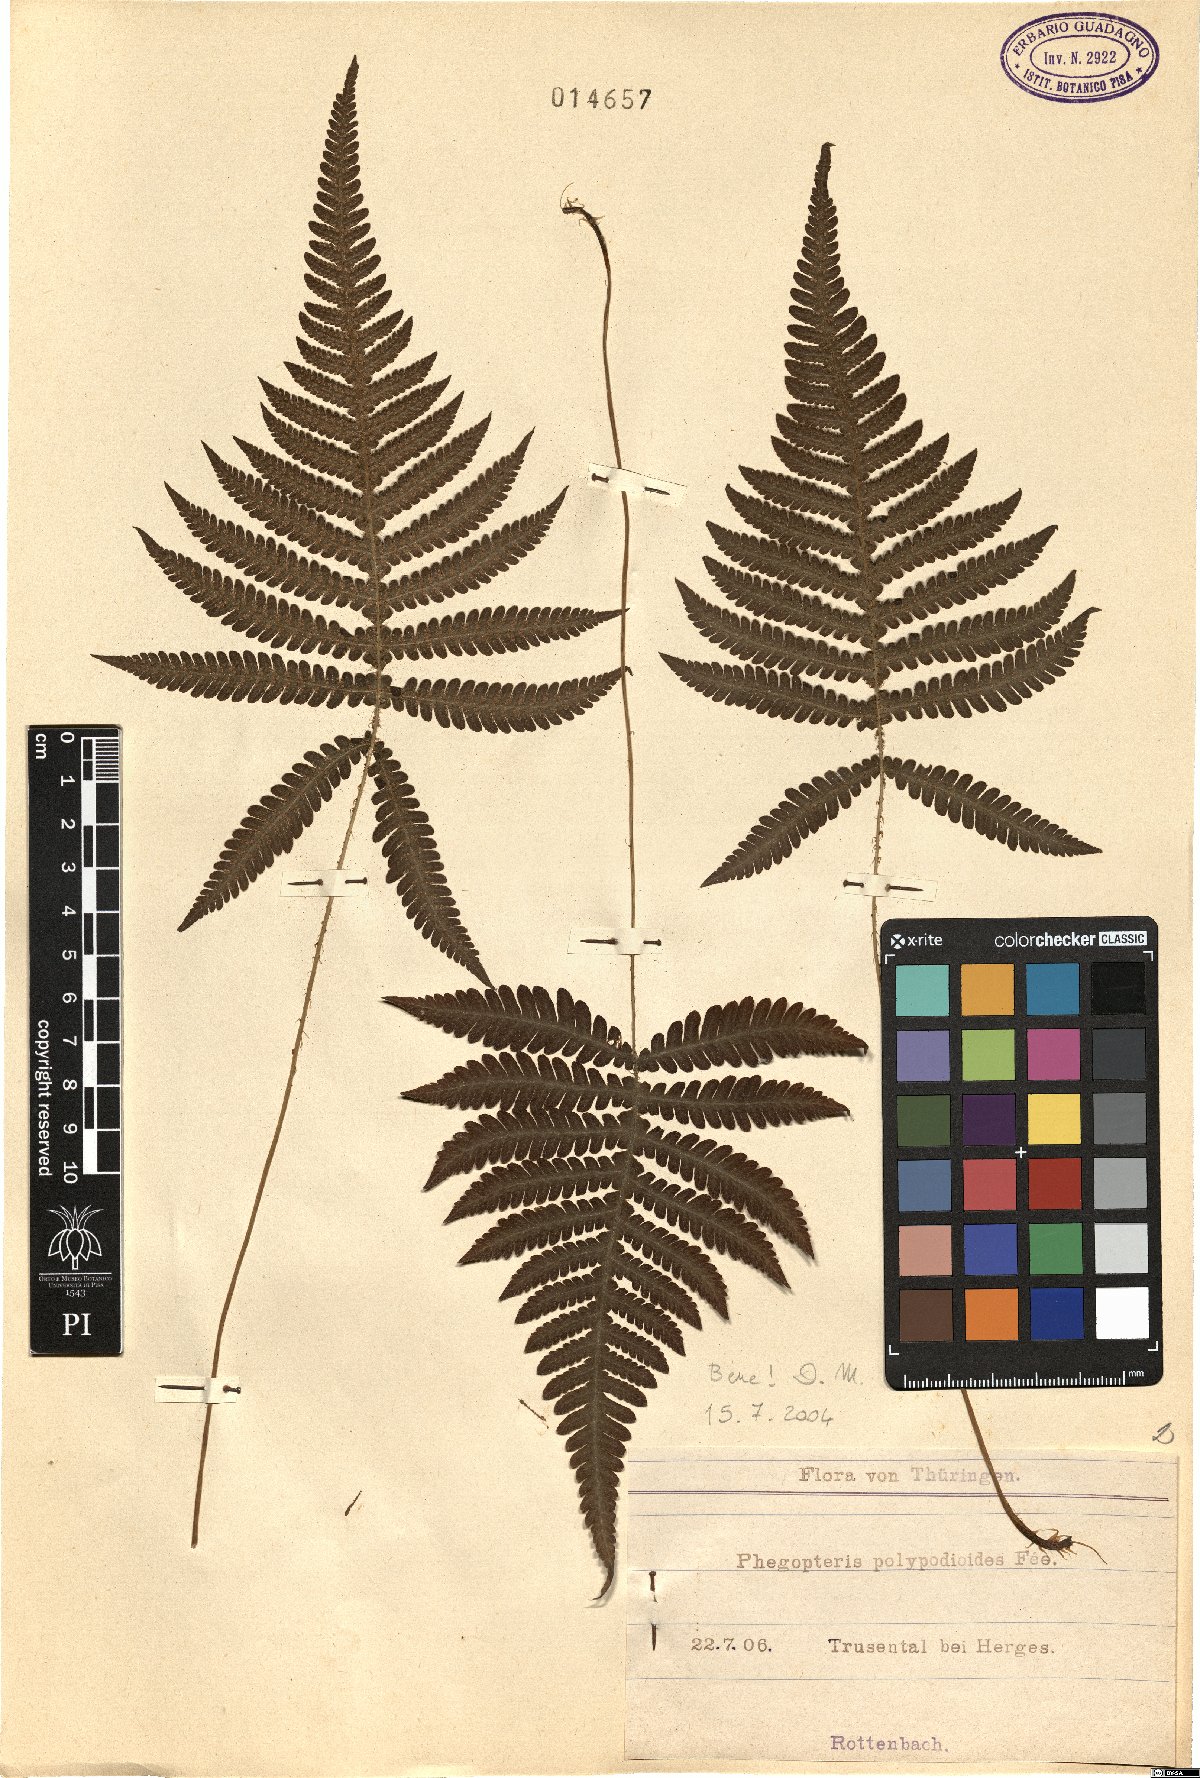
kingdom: Plantae
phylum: Tracheophyta
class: Polypodiopsida
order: Polypodiales
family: Thelypteridaceae
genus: Phegopteris
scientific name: Phegopteris connectilis
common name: Beech fern
